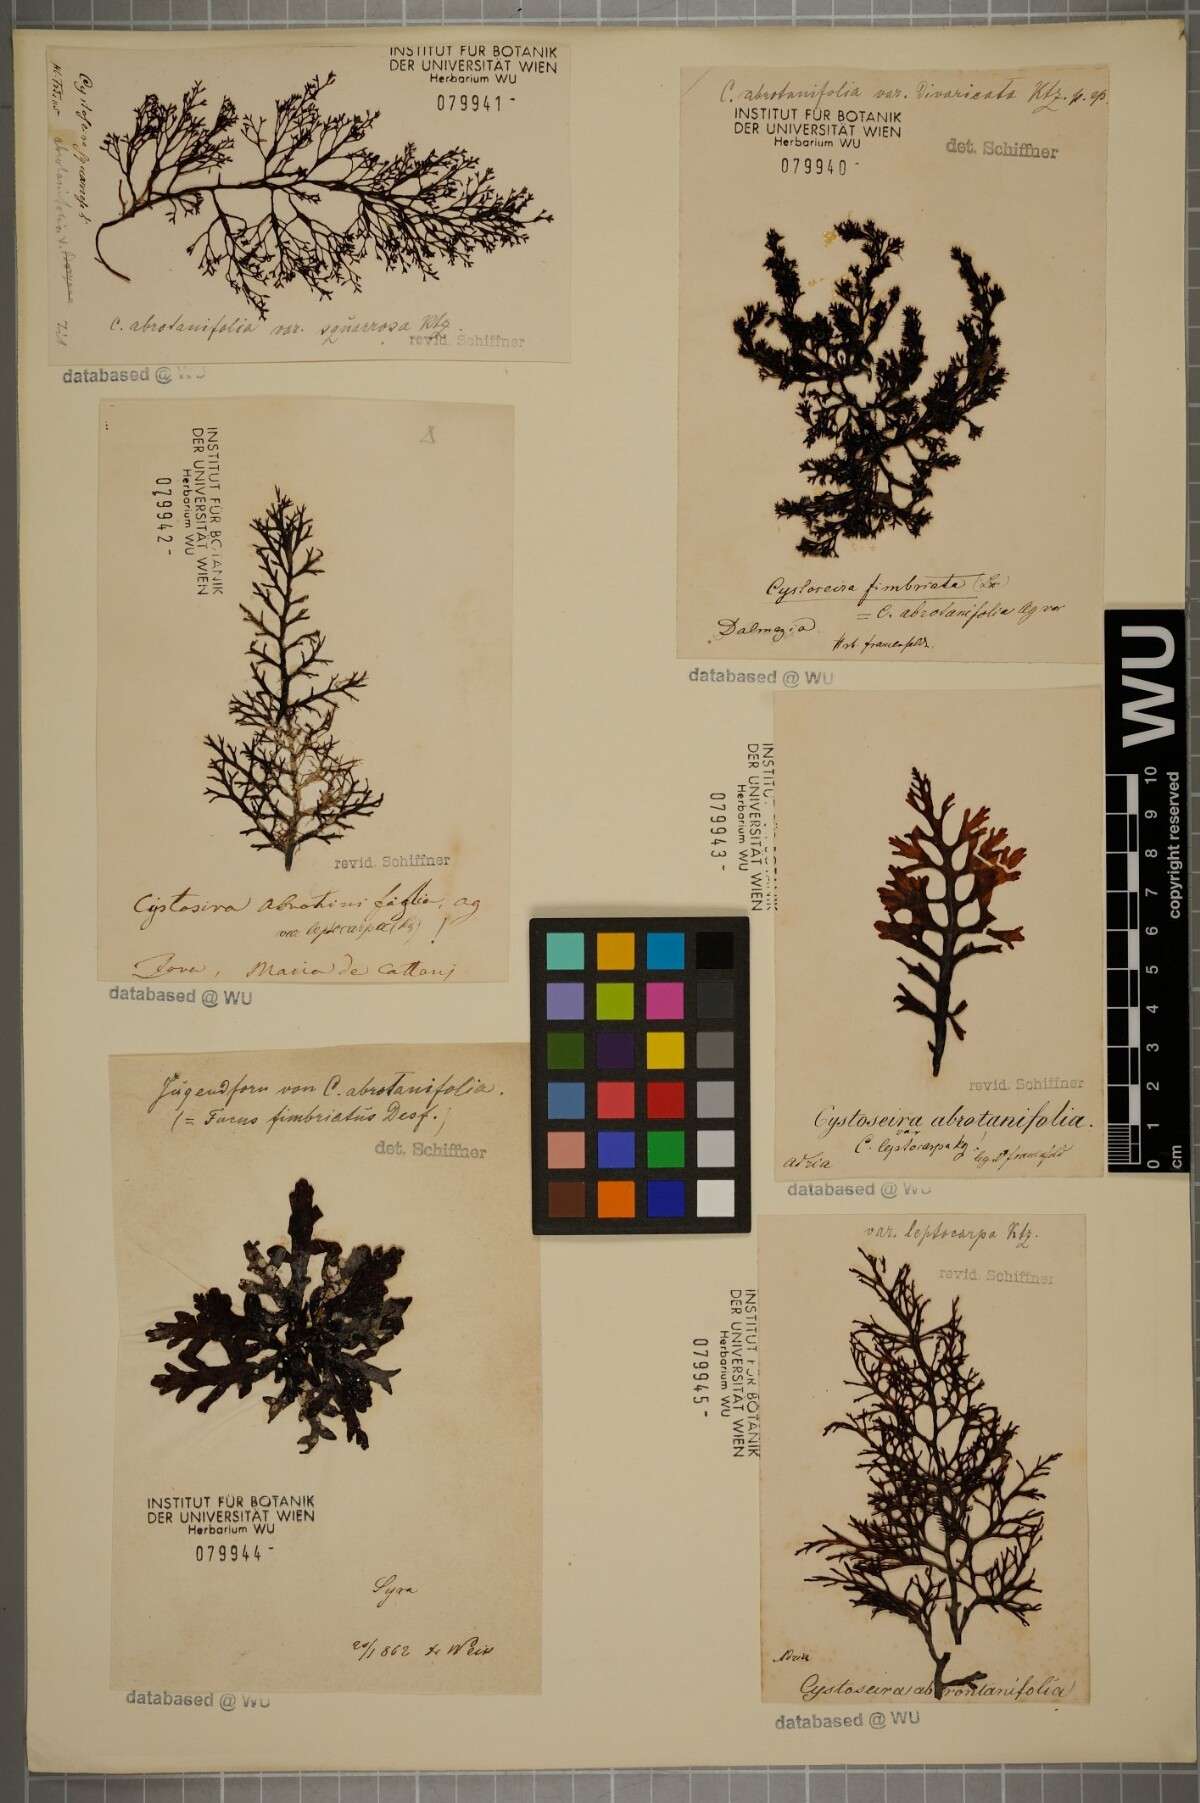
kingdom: Chromista
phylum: Ochrophyta
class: Phaeophyceae
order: Fucales
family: Sargassaceae
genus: Cystoseira
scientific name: Cystoseira foeniculacea
